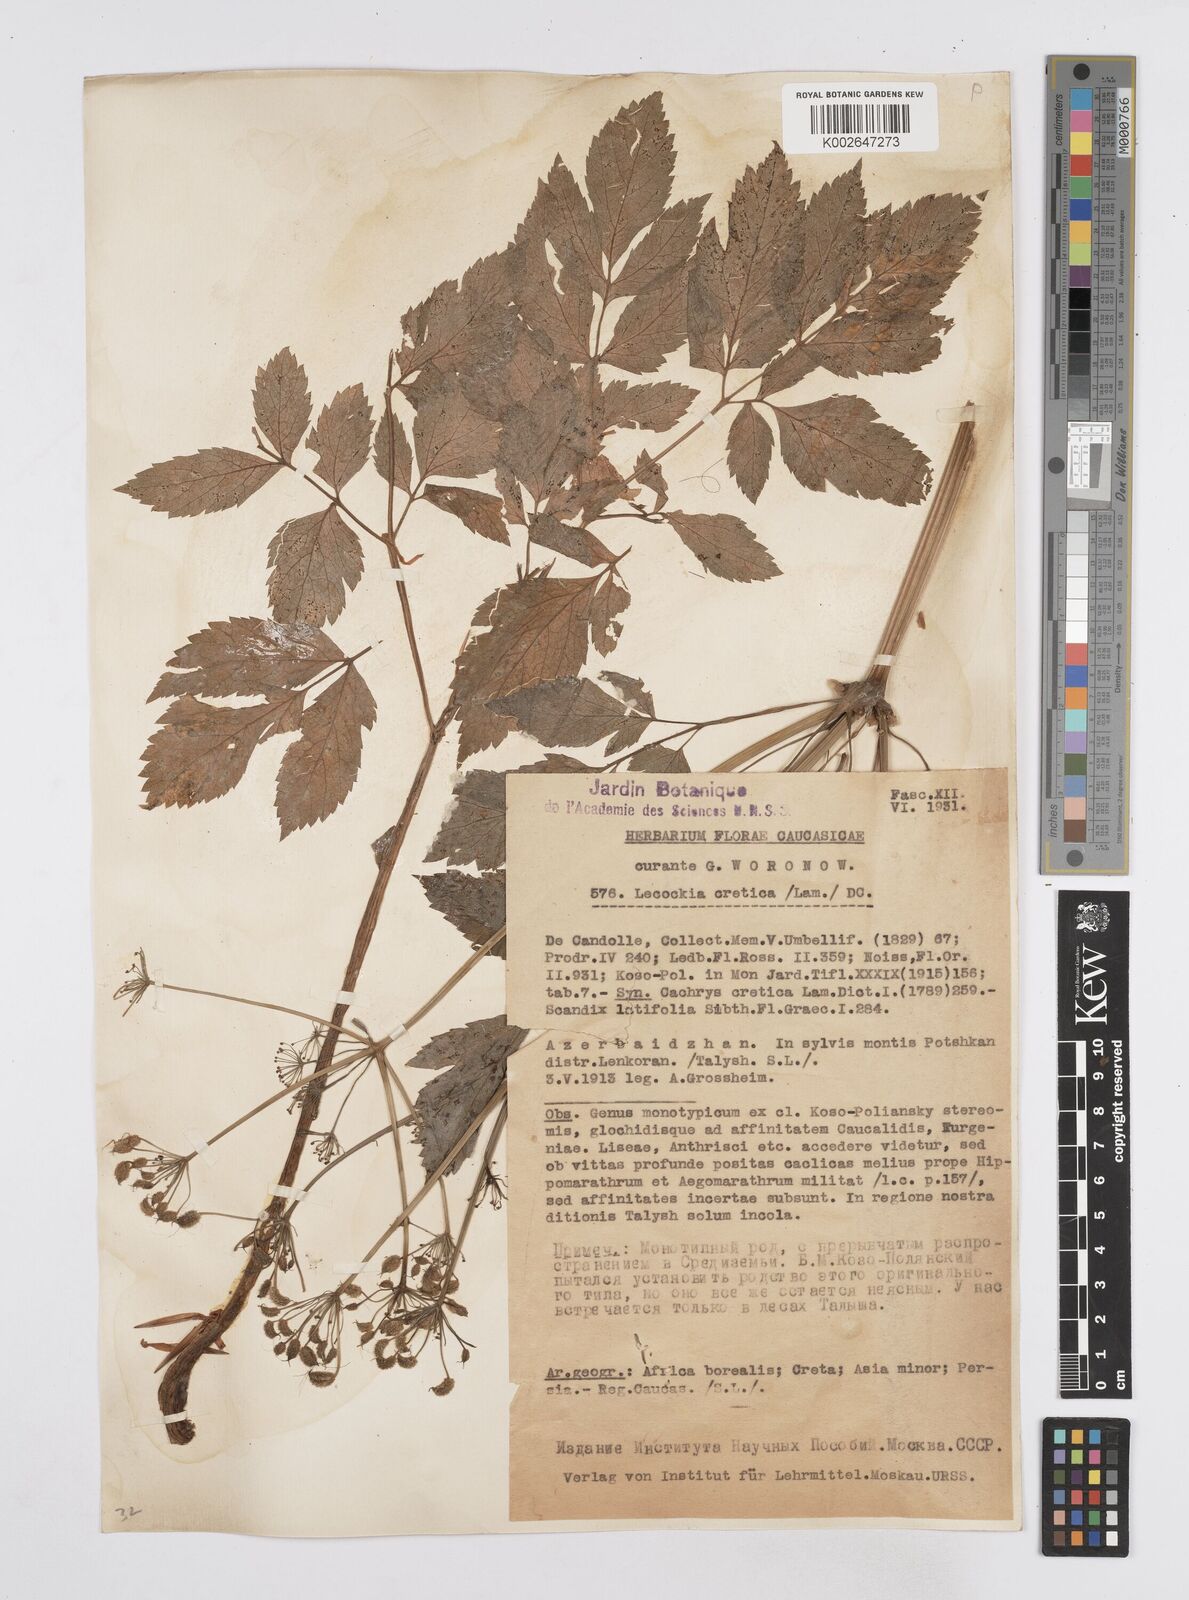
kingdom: Plantae
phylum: Tracheophyta
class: Magnoliopsida
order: Apiales
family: Apiaceae
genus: Lecokia
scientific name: Lecokia cretica
